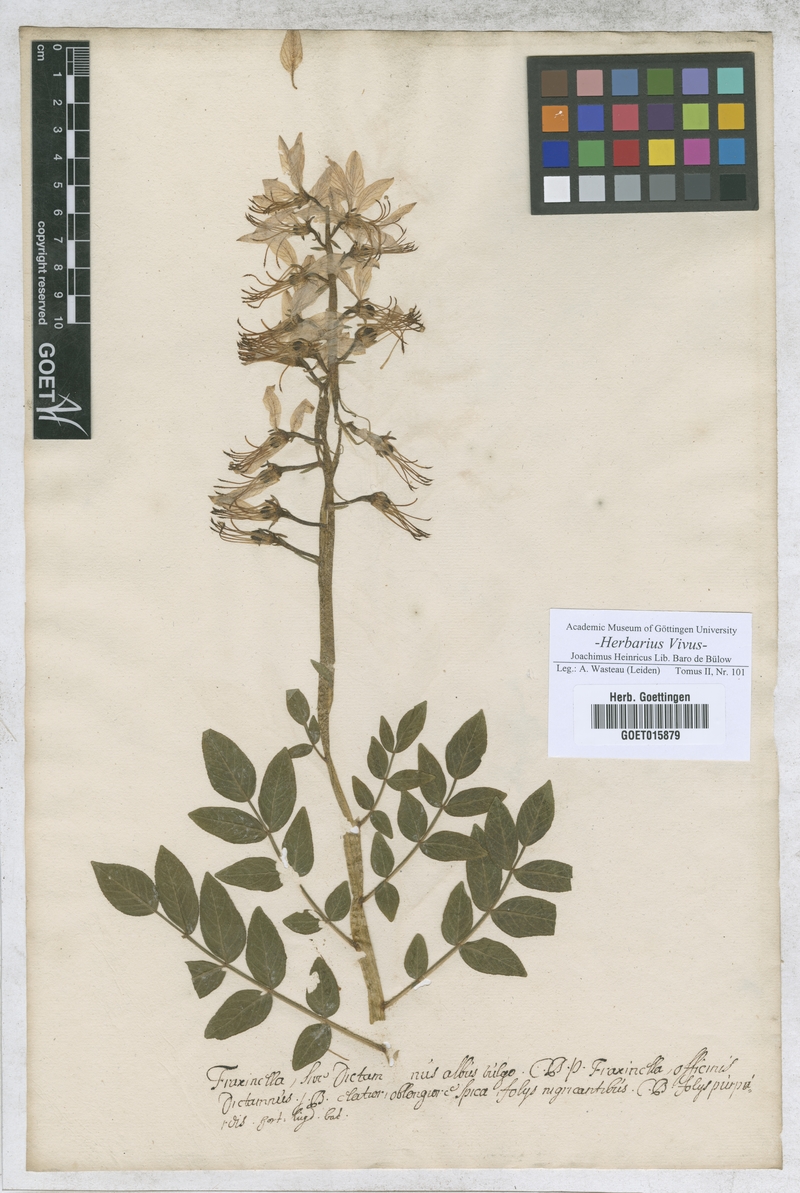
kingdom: Plantae
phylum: Tracheophyta
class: Magnoliopsida
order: Sapindales
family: Rutaceae
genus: Dictamnus
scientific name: Dictamnus albus
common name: Gasplant
